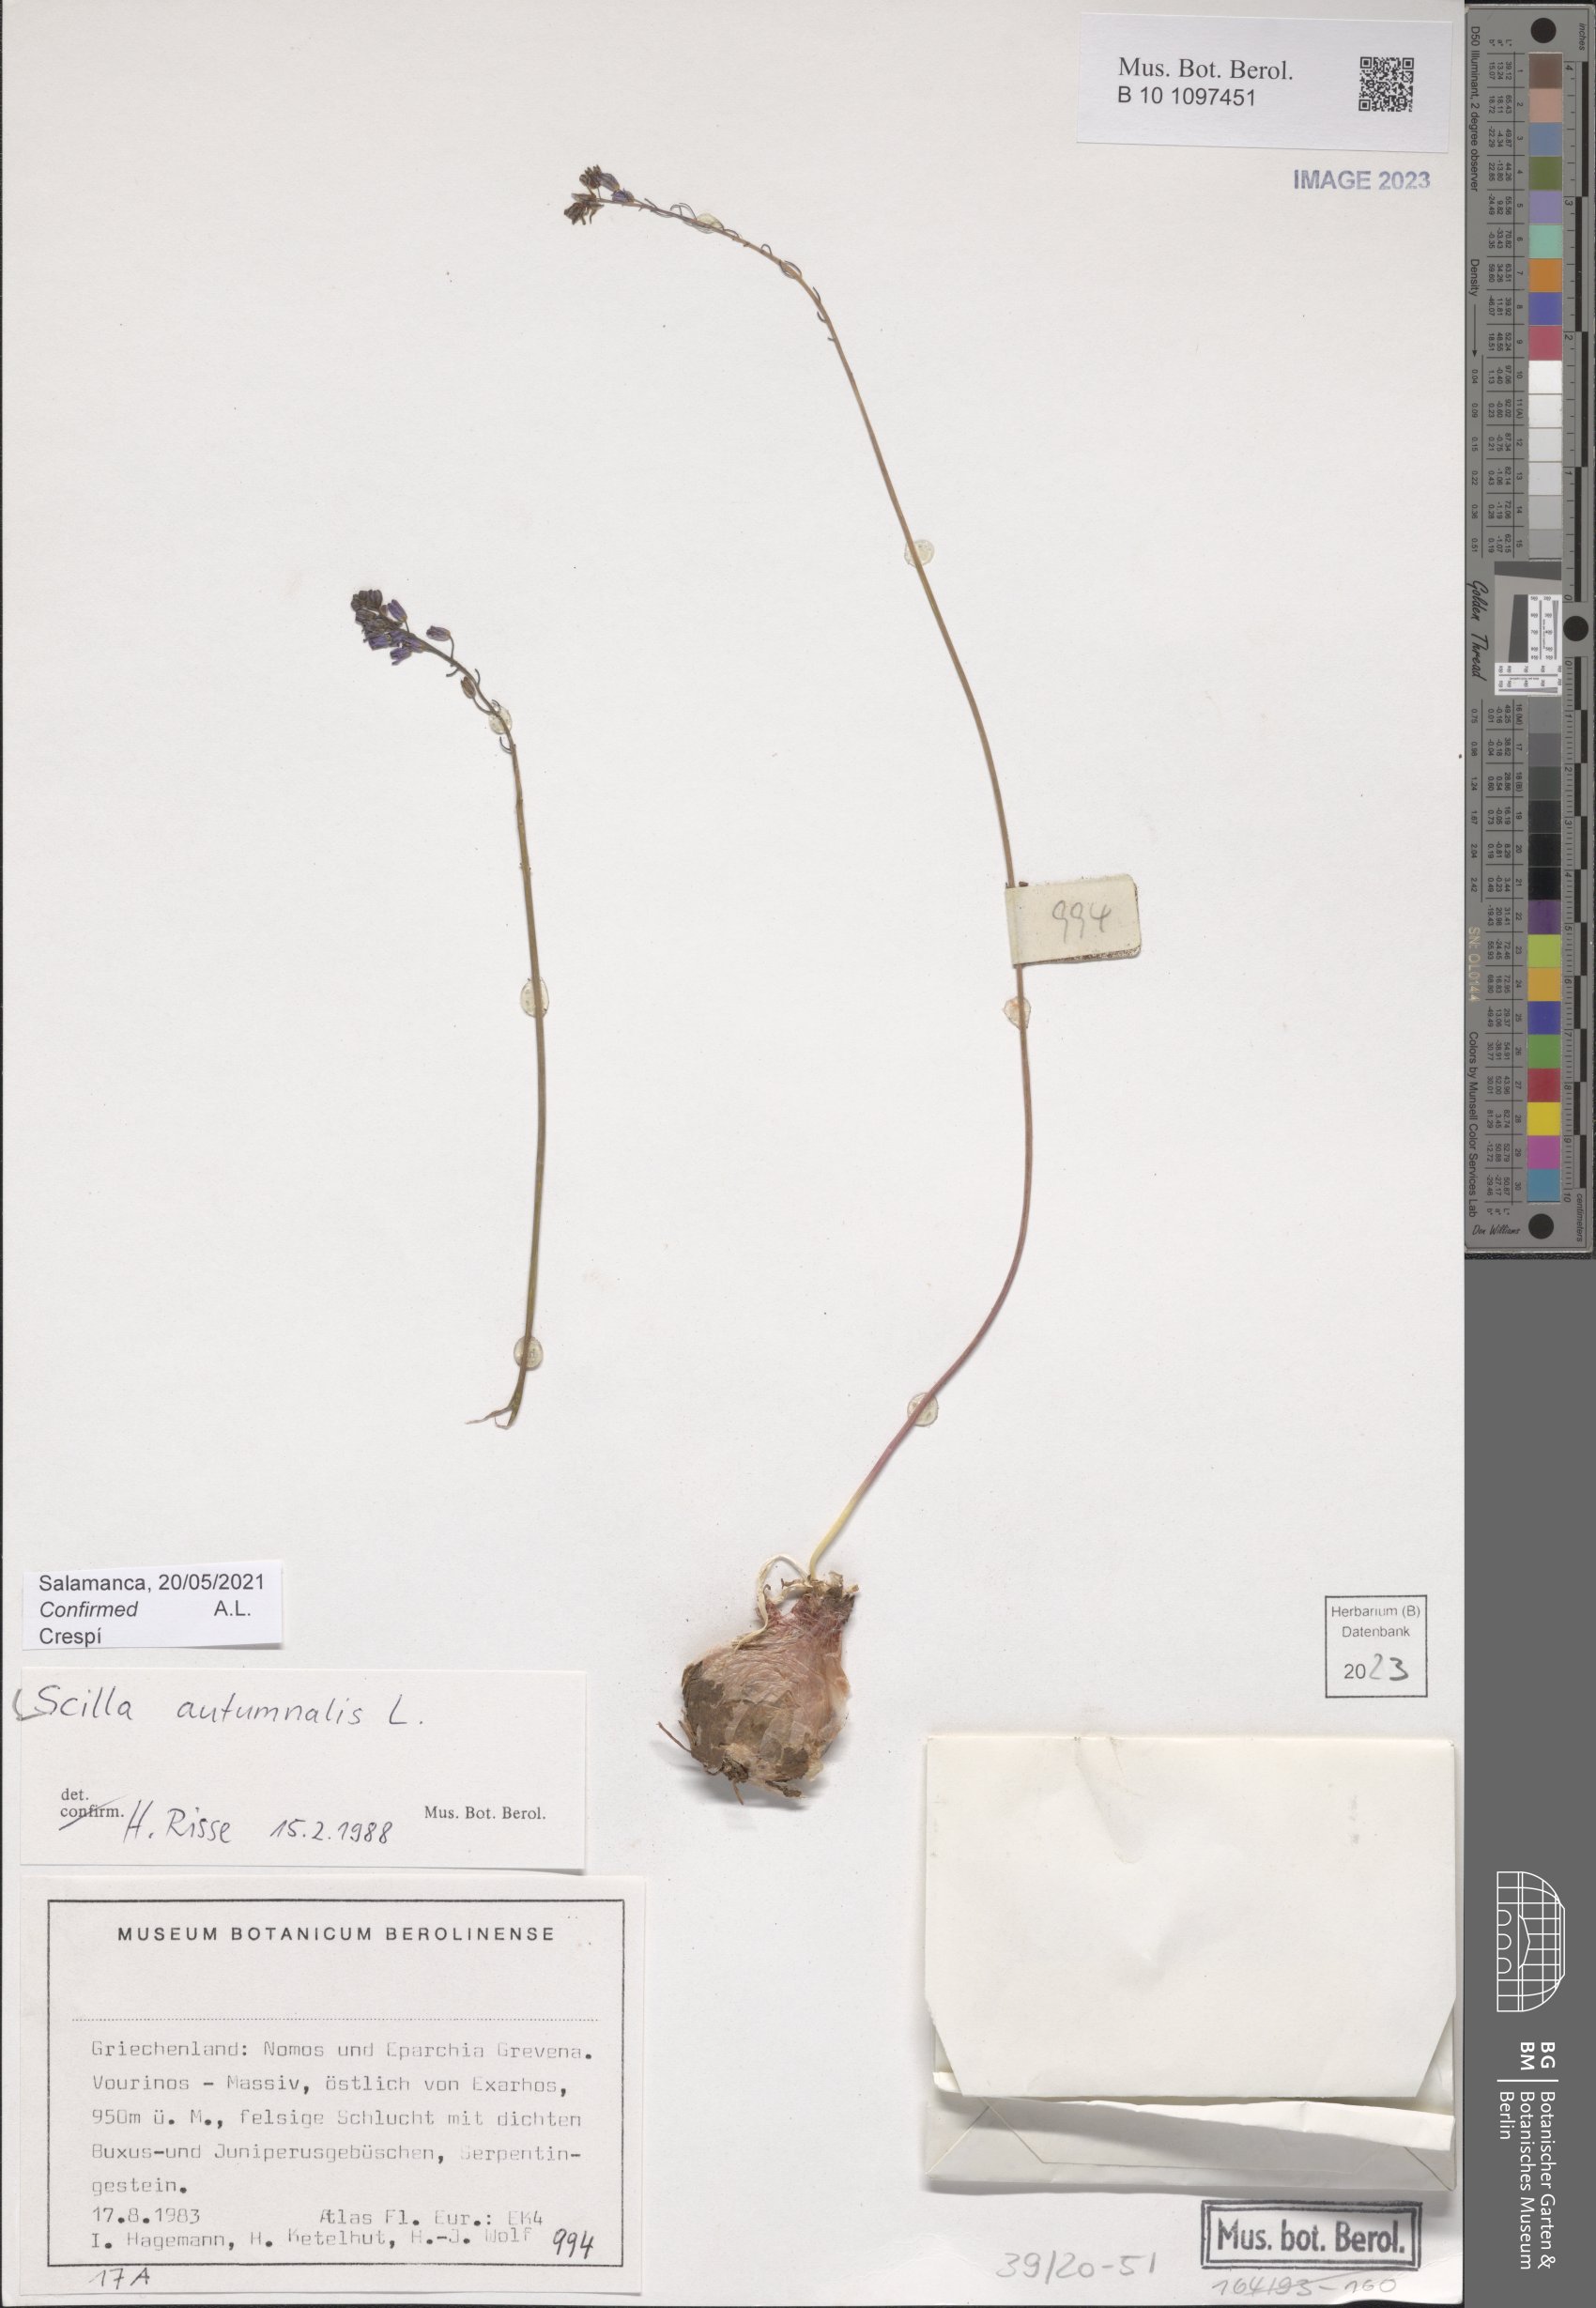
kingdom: Plantae
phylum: Tracheophyta
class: Liliopsida
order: Asparagales
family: Asparagaceae
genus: Prospero
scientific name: Prospero autumnale
